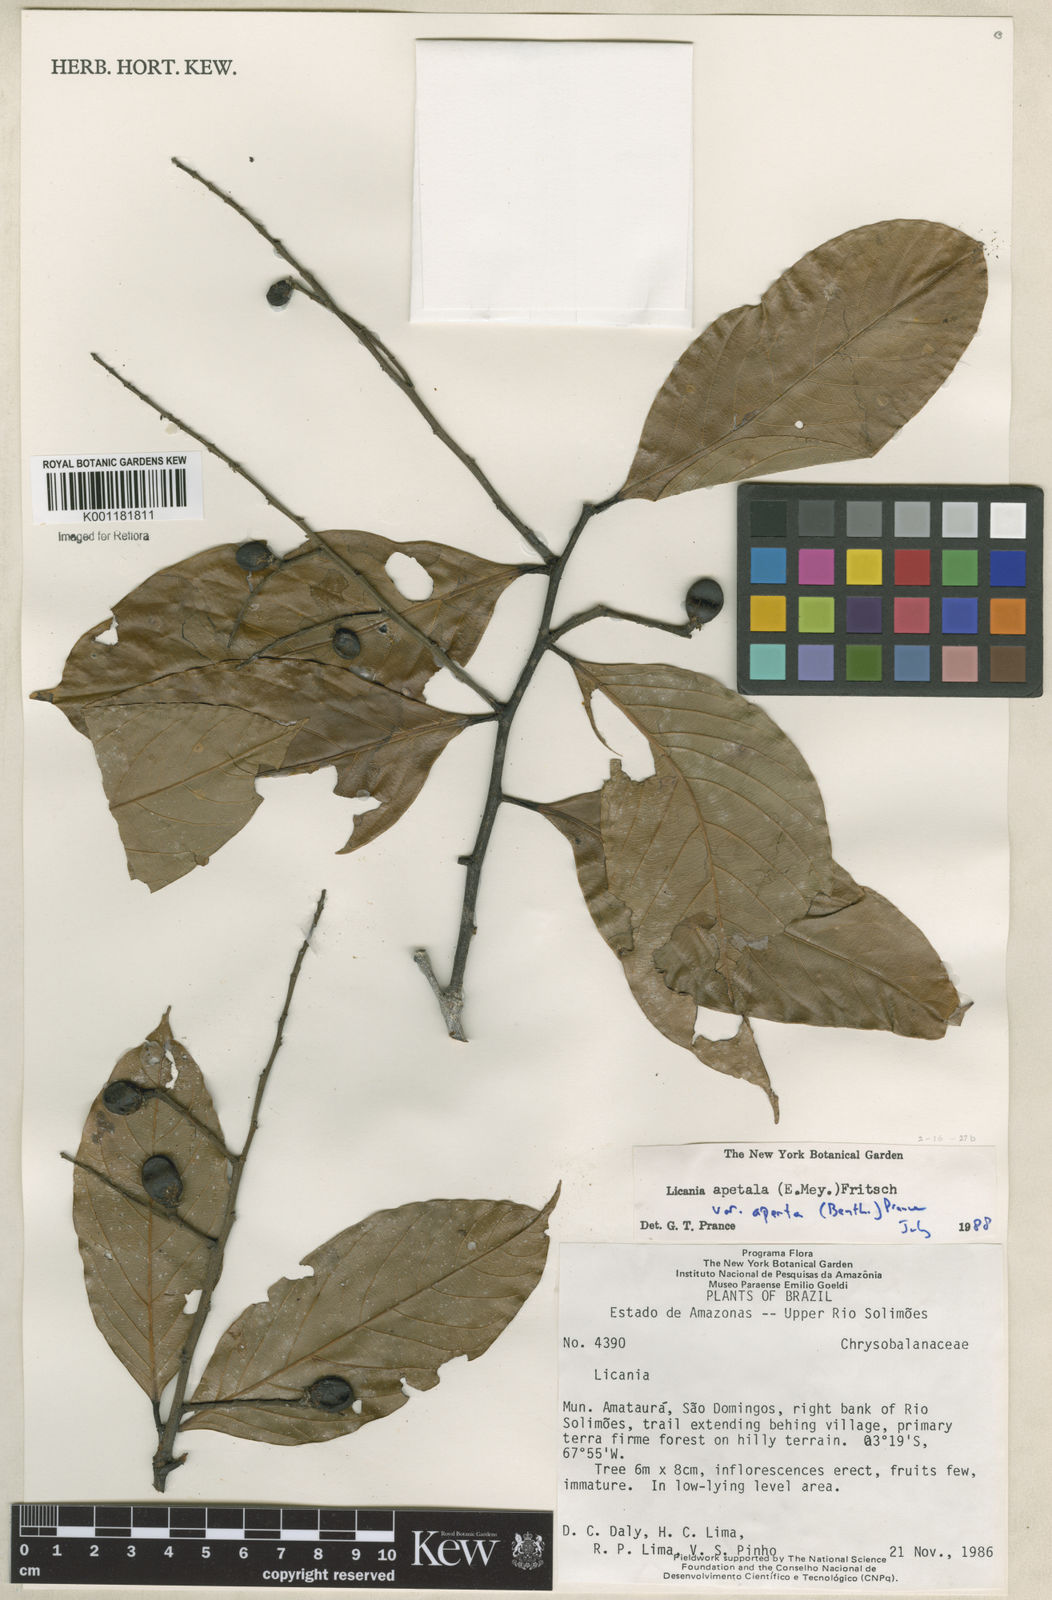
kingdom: Plantae
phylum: Tracheophyta
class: Magnoliopsida
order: Malpighiales
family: Chrysobalanaceae
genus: Leptobalanus
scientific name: Leptobalanus apetalus
